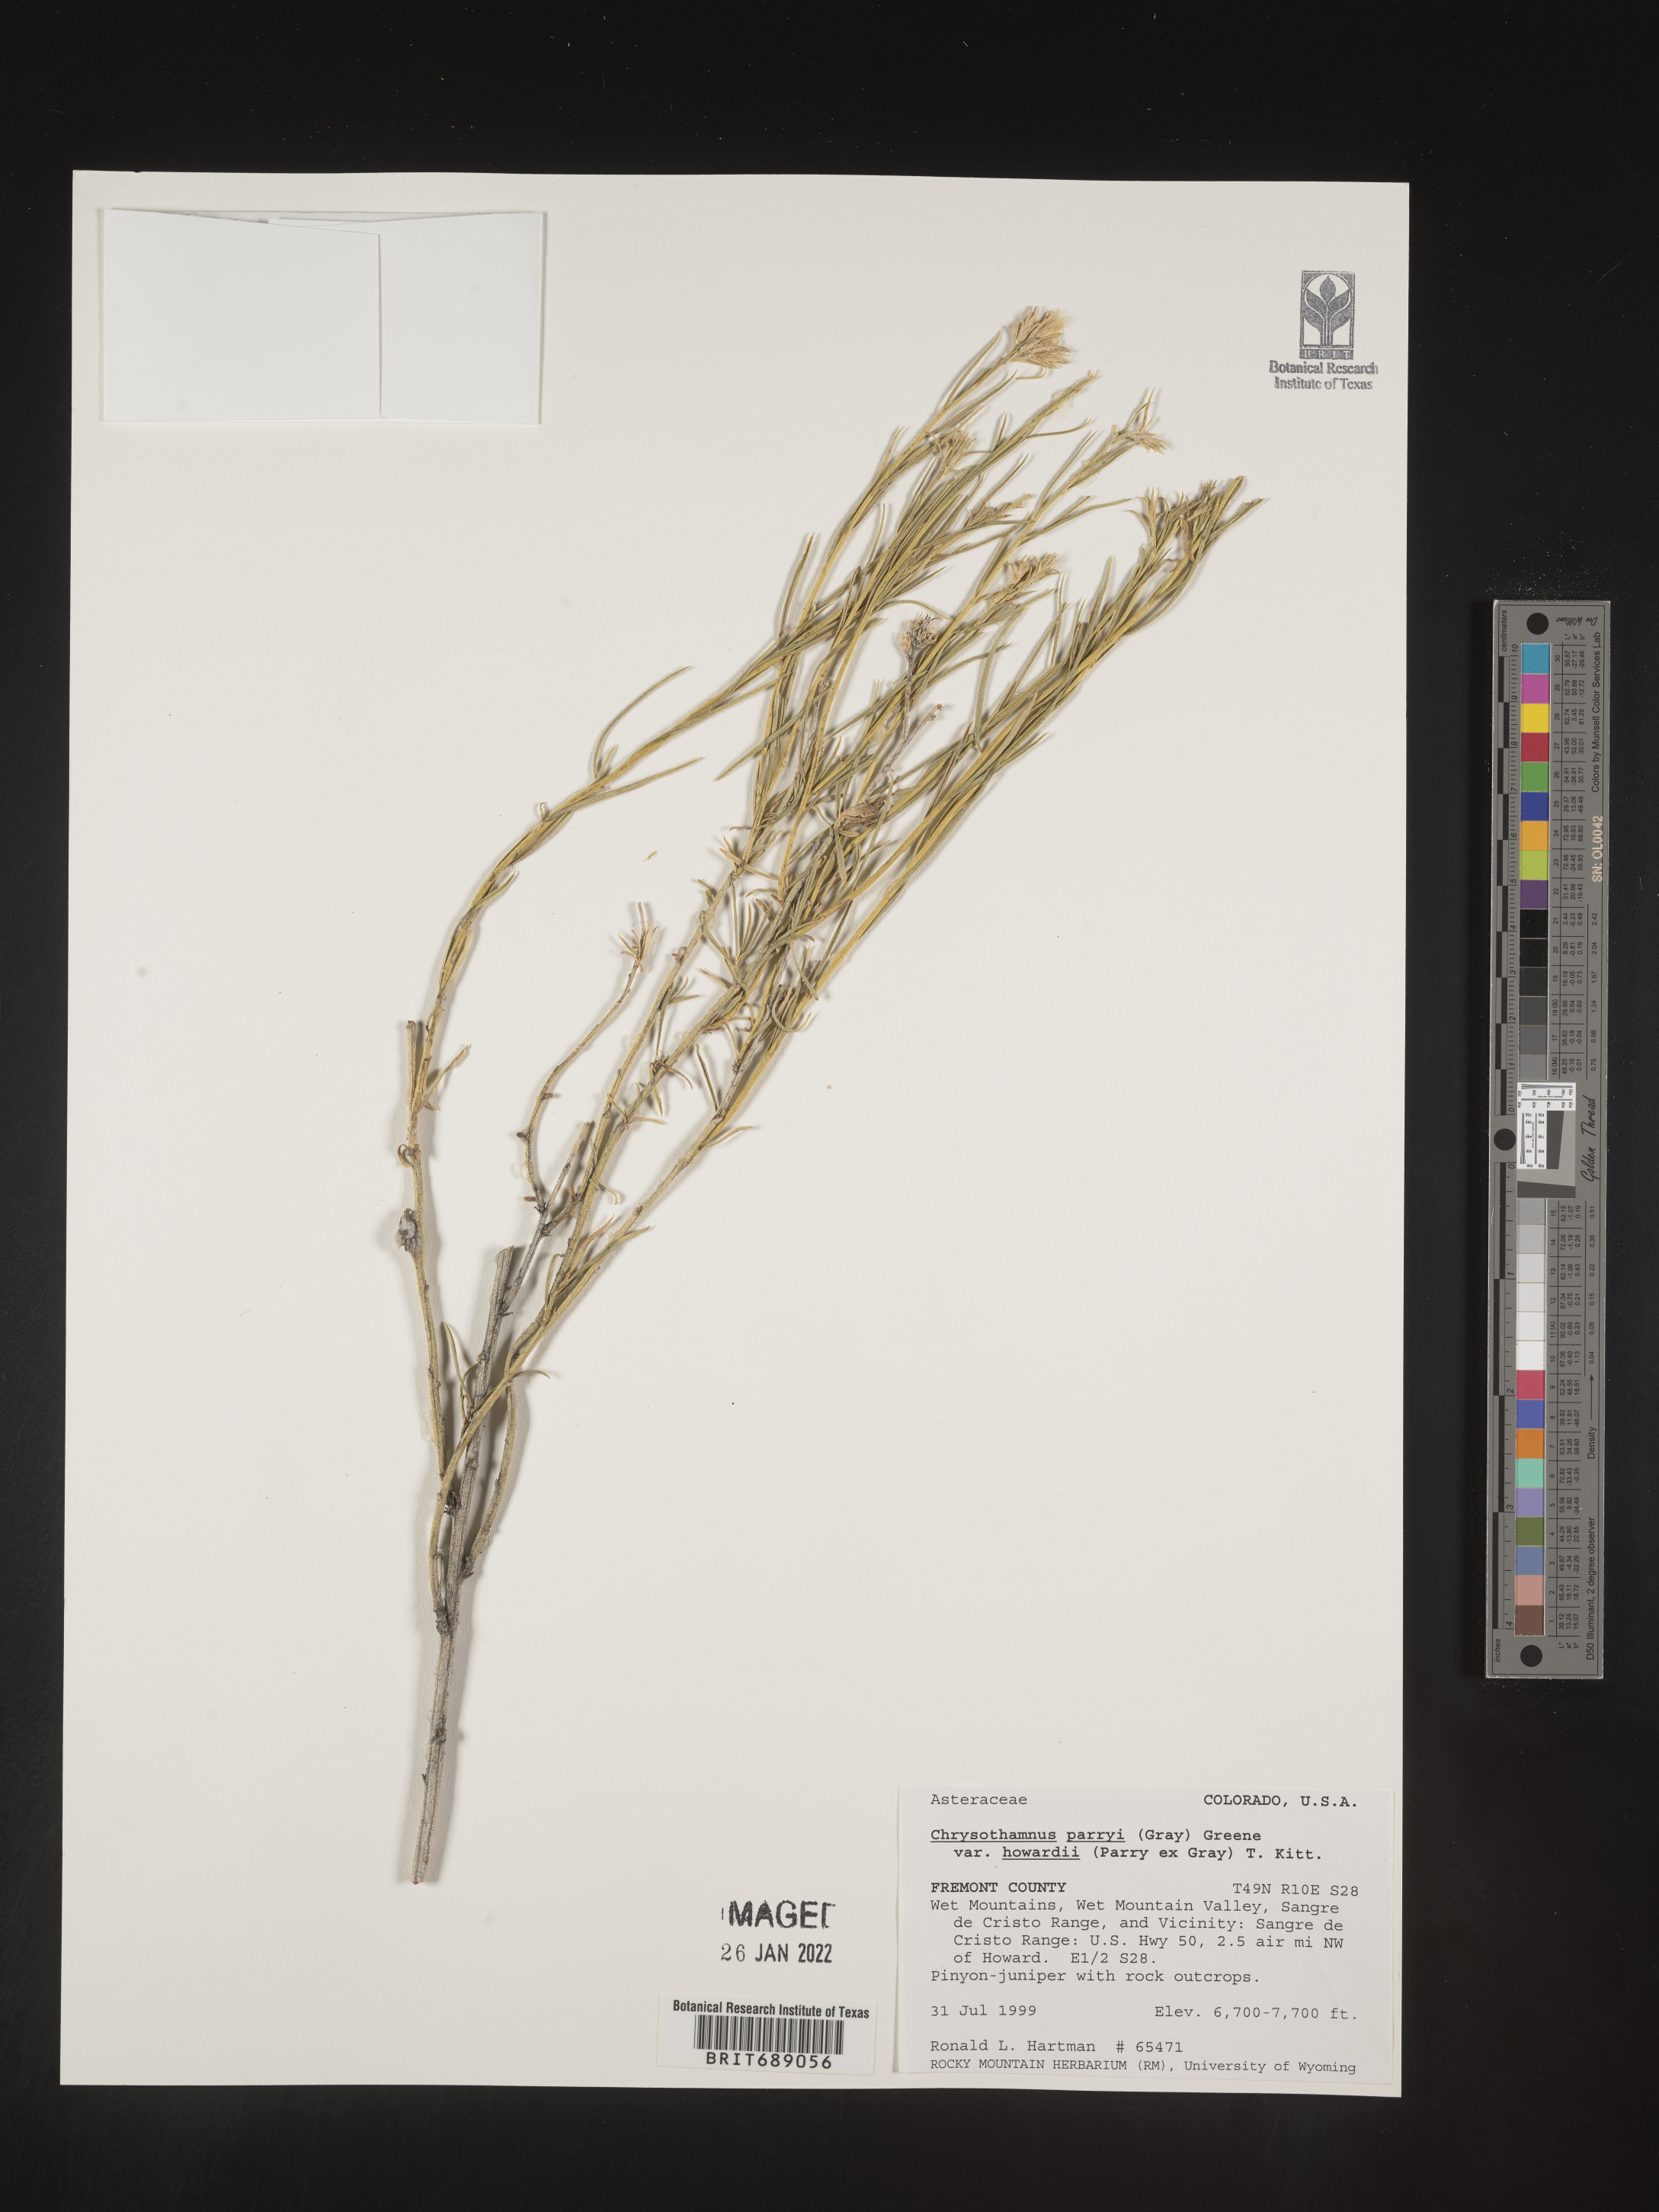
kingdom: Plantae
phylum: Tracheophyta
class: Magnoliopsida
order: Asterales
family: Asteraceae
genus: Chrysothamnus
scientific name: Chrysothamnus
